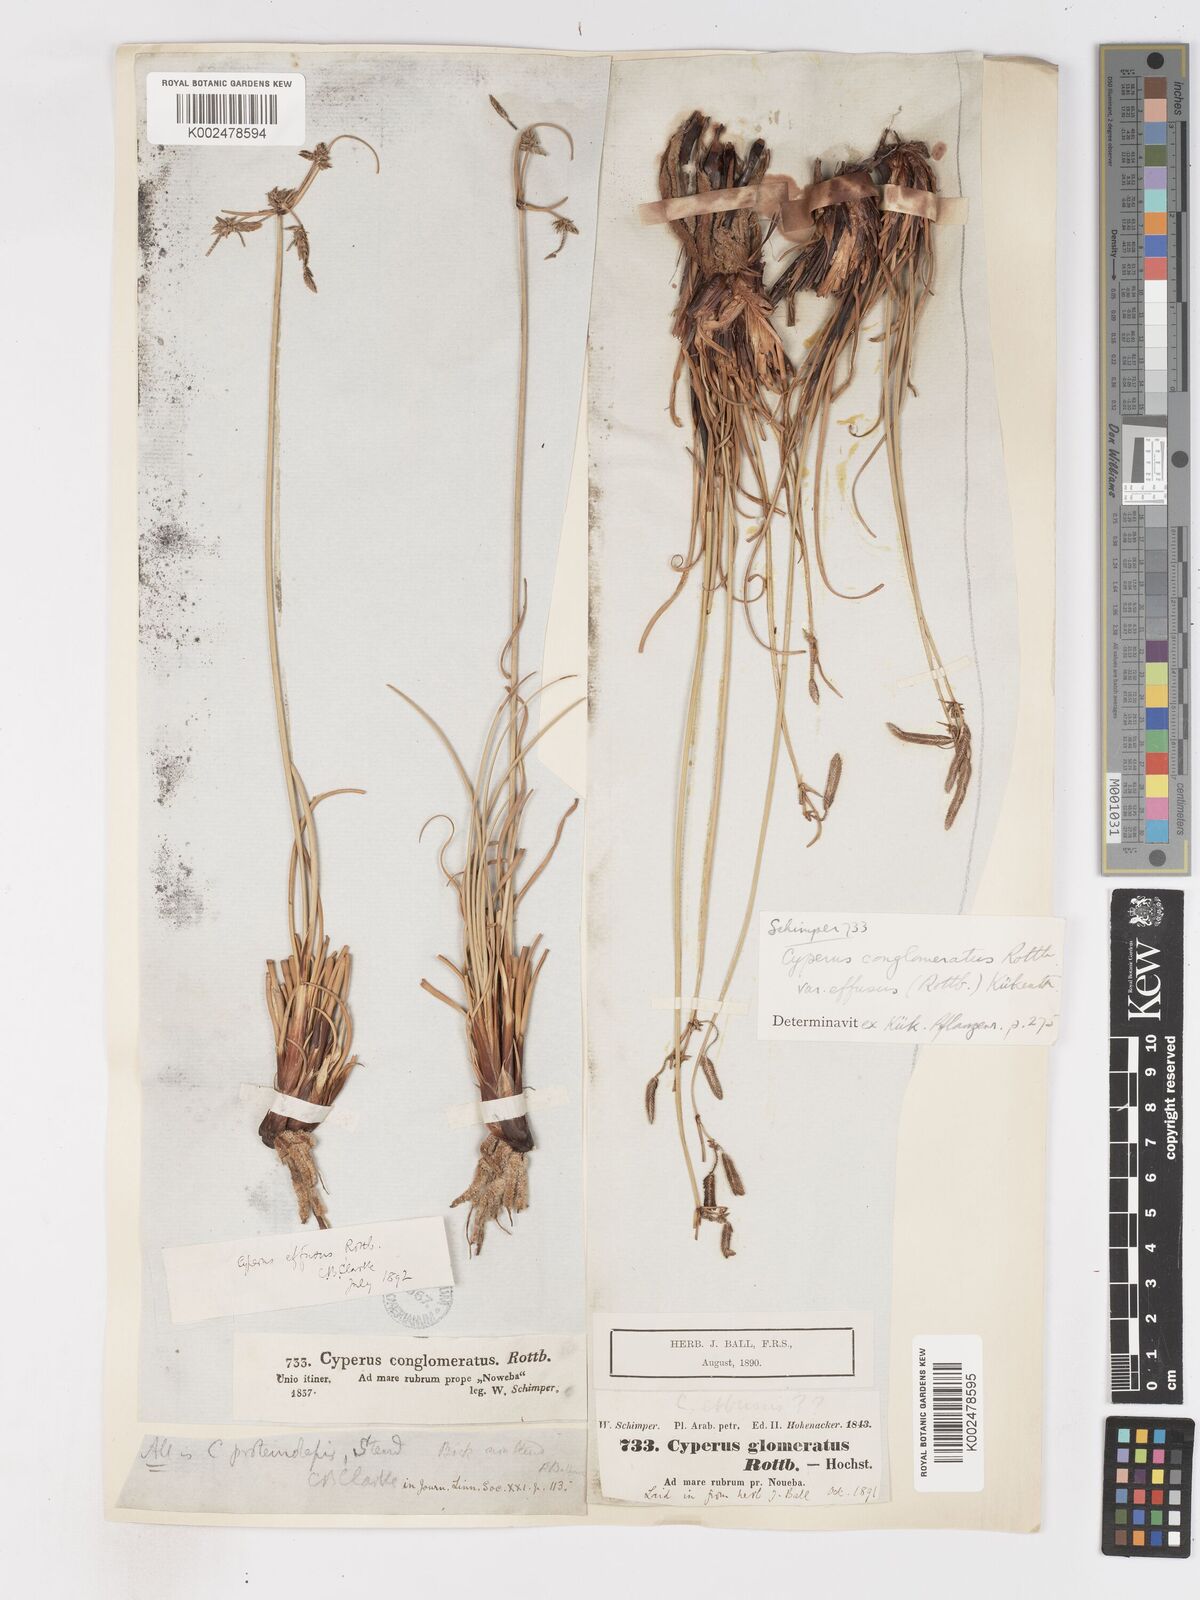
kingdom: Plantae
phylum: Tracheophyta
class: Liliopsida
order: Poales
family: Cyperaceae
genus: Cyperus
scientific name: Cyperus conglomeratus
